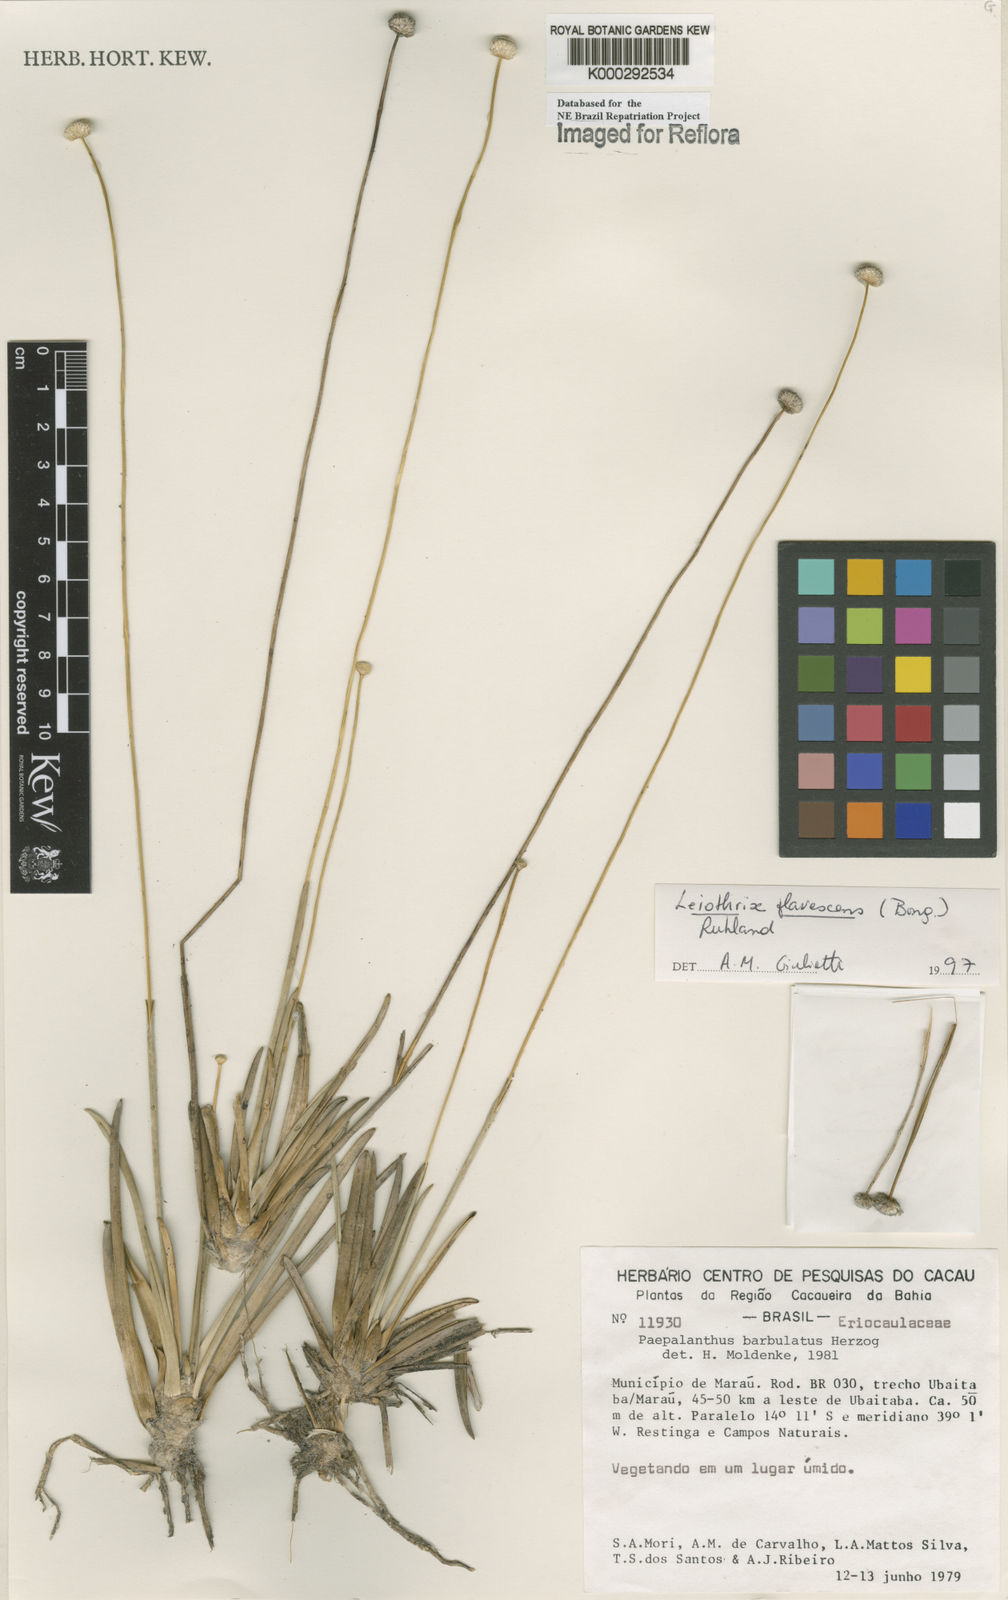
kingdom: Plantae
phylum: Tracheophyta
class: Liliopsida
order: Poales
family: Eriocaulaceae
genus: Leiothrix
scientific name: Leiothrix flavescens
